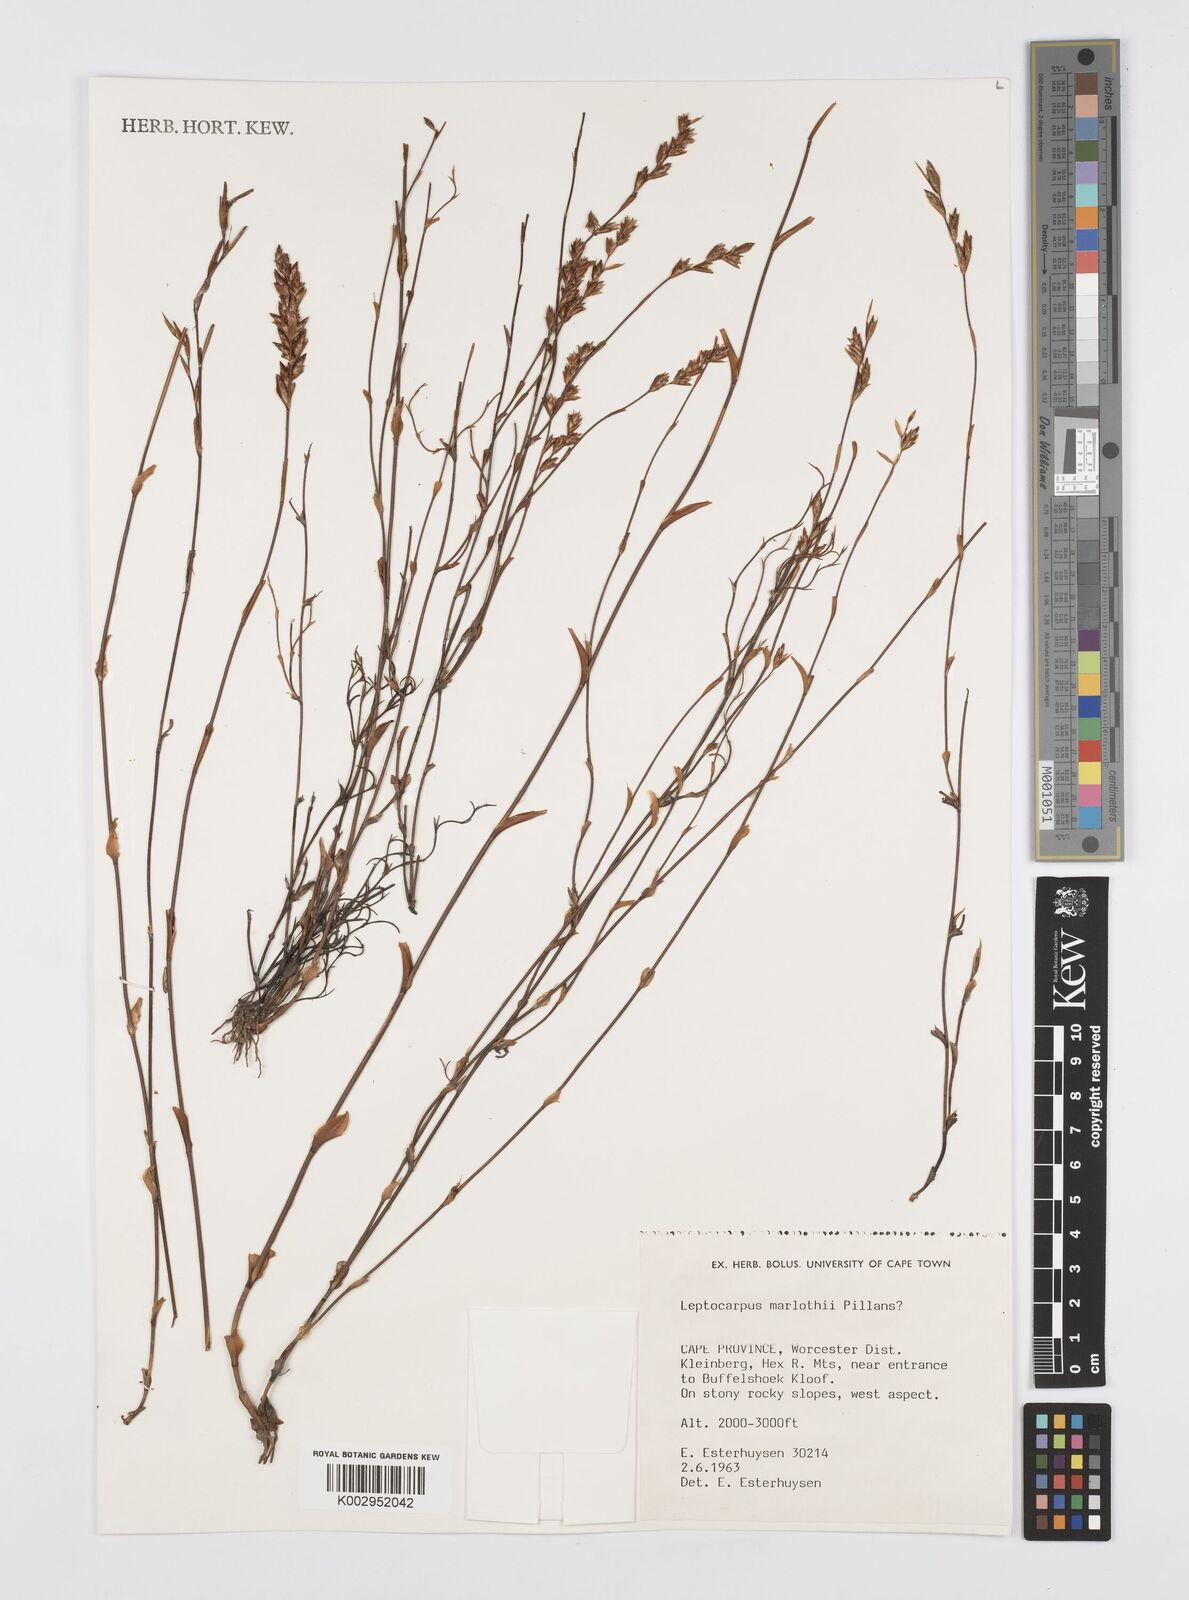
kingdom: Plantae
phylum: Tracheophyta
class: Liliopsida
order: Poales
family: Restionaceae
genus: Restio
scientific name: Restio marlothii
